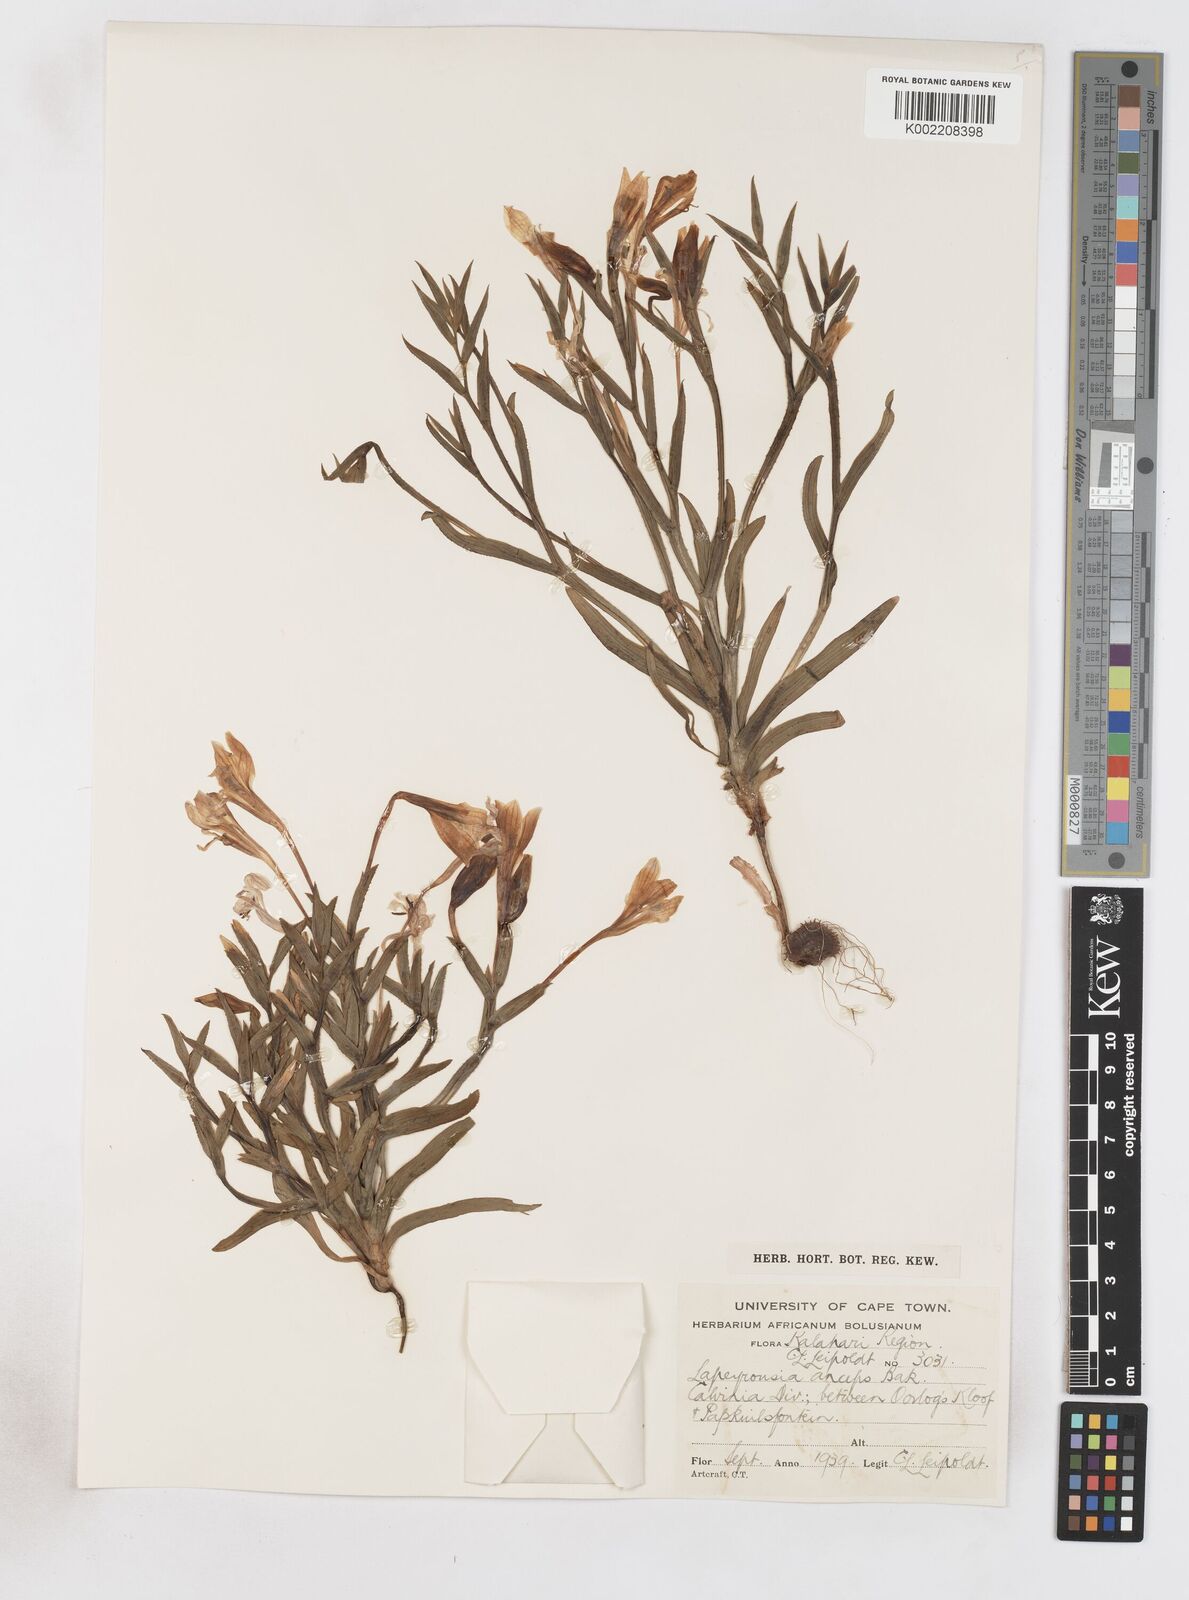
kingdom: Plantae
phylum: Tracheophyta
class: Liliopsida
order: Asparagales
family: Iridaceae
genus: Lapeirousia
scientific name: Lapeirousia fabricii
